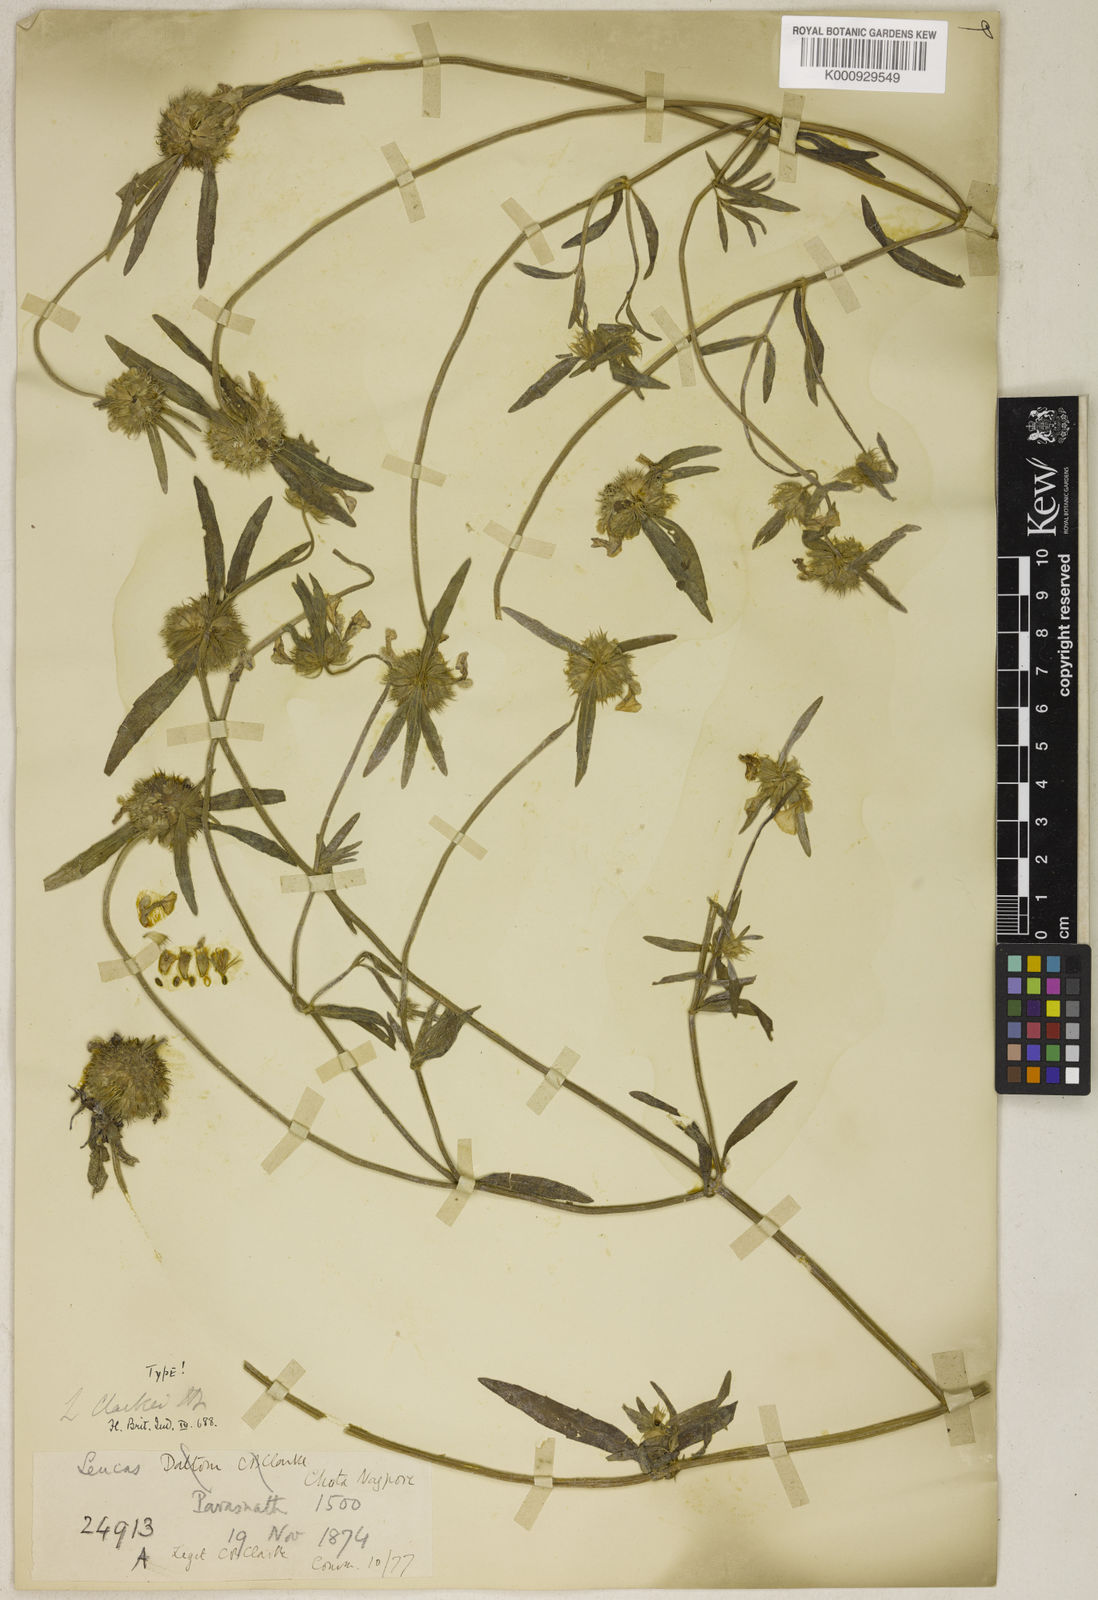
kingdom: Plantae
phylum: Tracheophyta
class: Magnoliopsida
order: Lamiales
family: Lamiaceae
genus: Leucas
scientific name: Leucas clarkei
